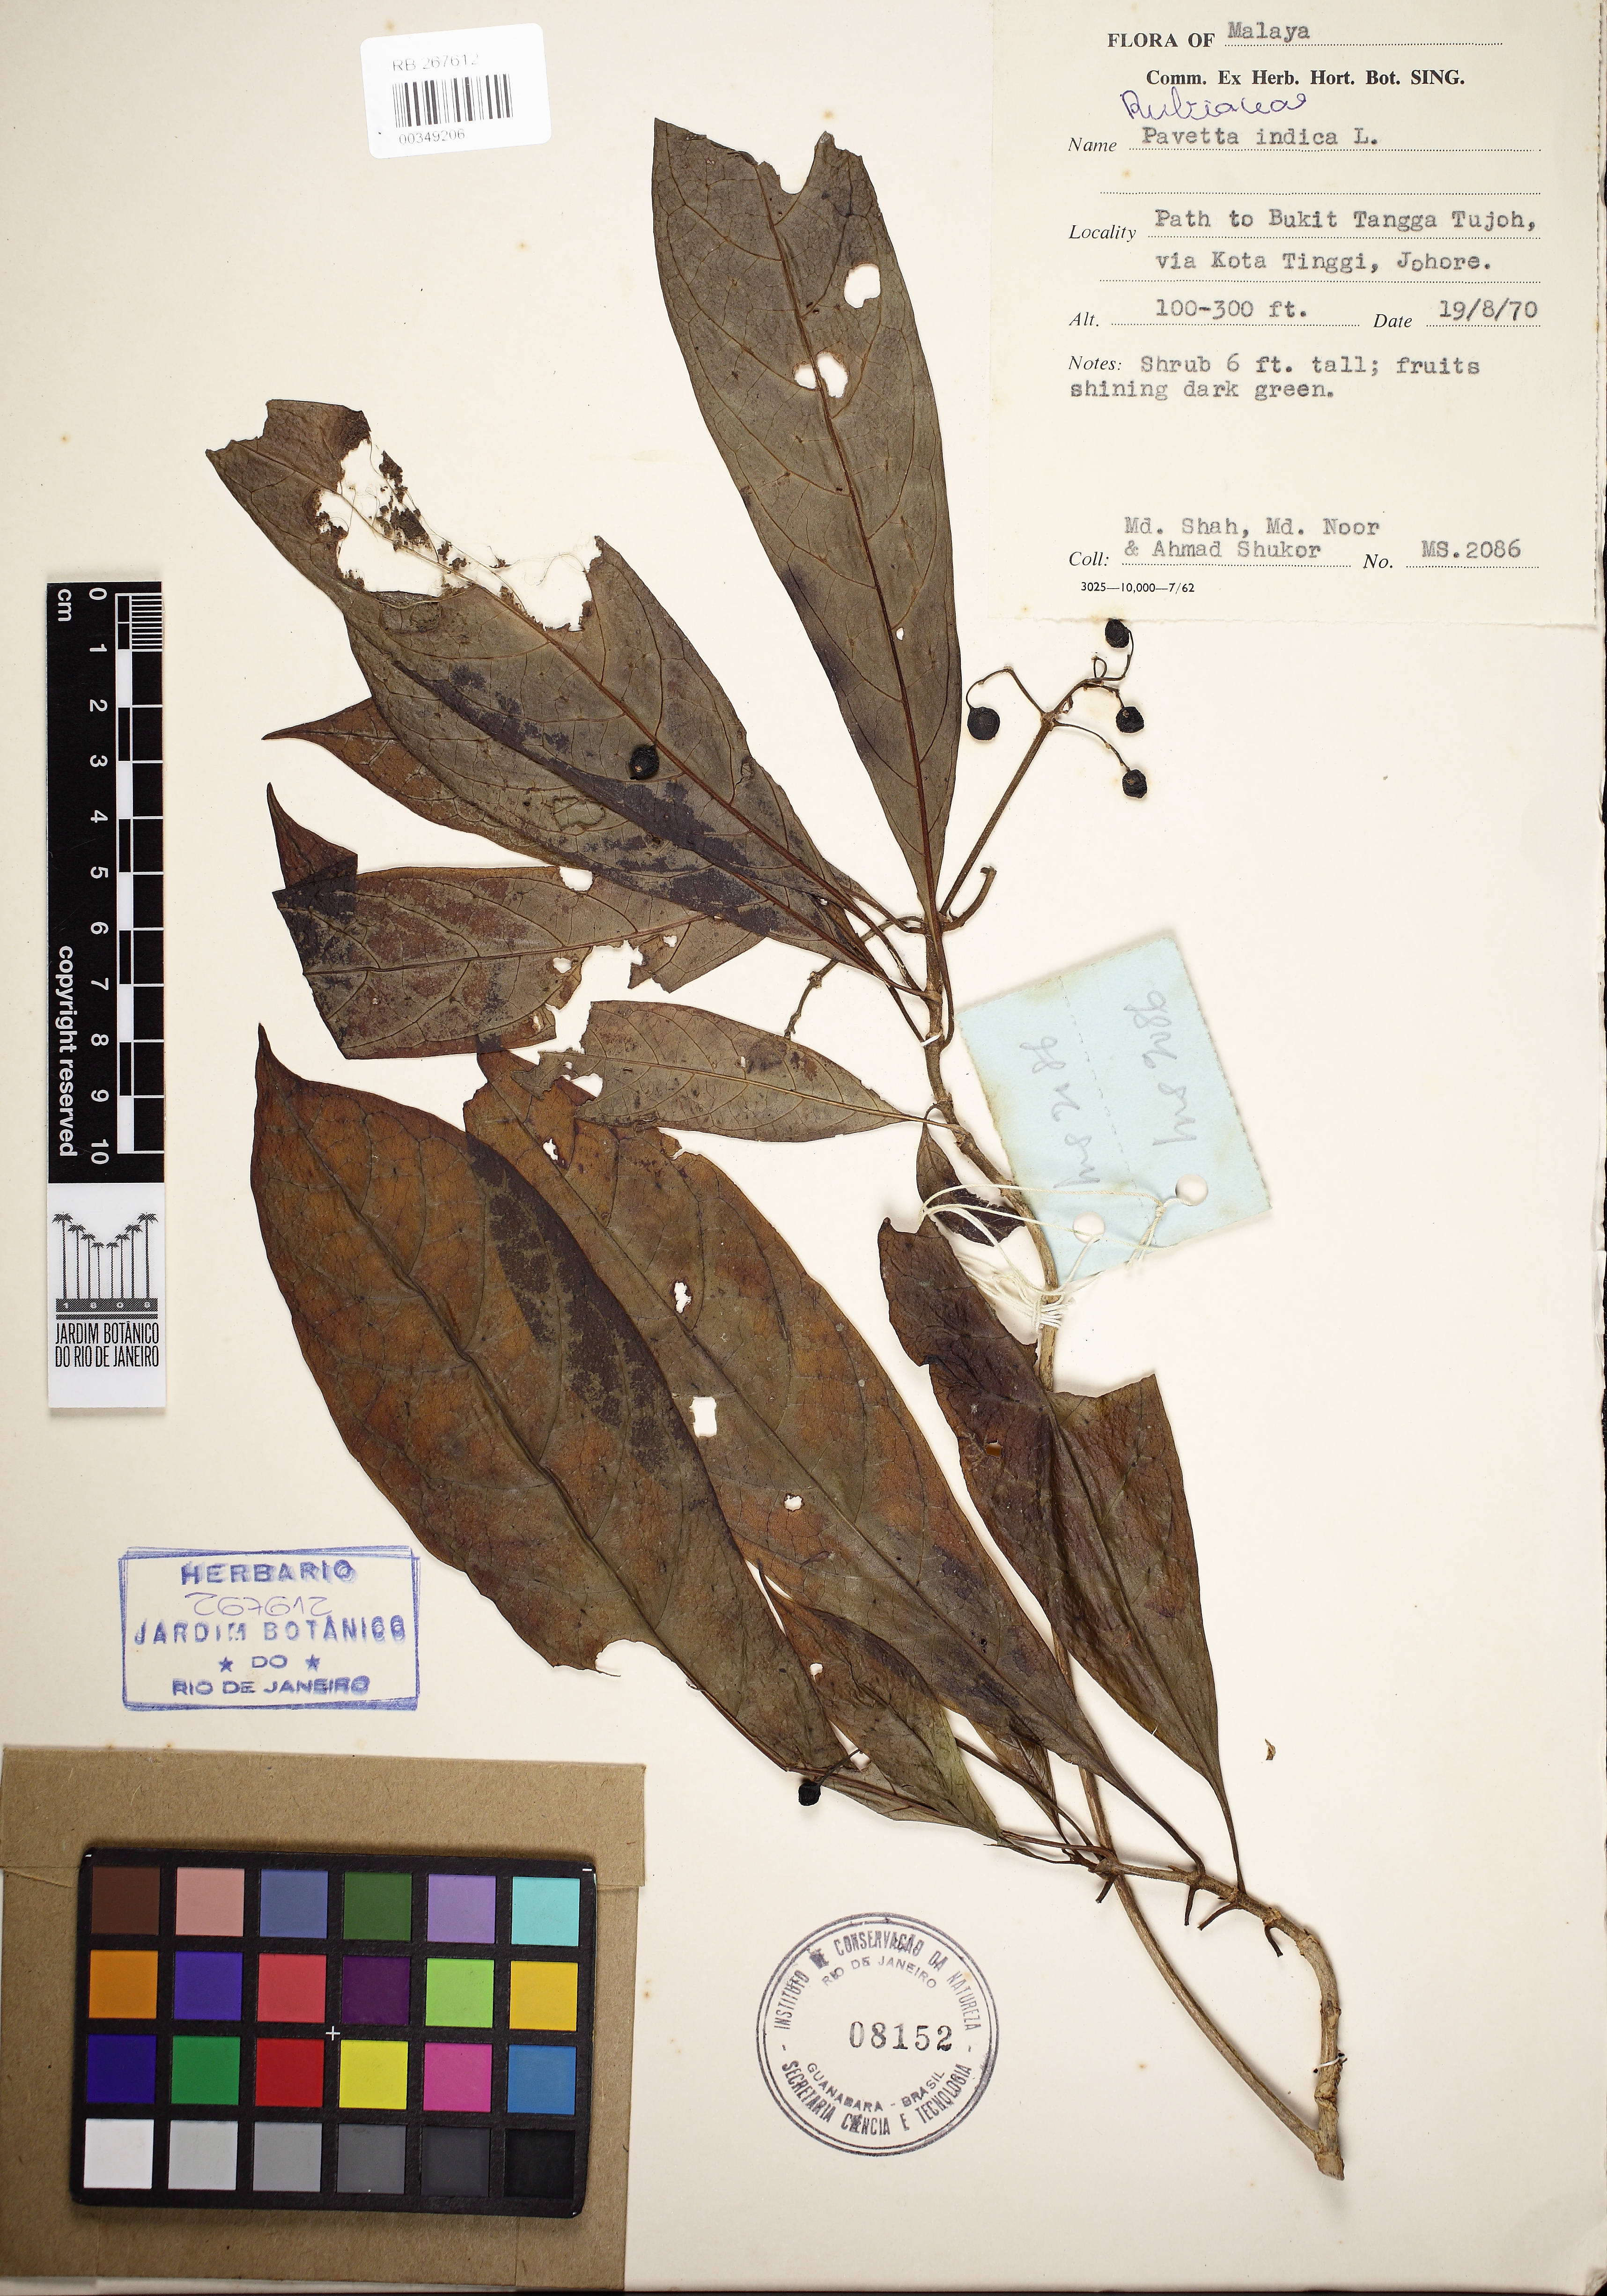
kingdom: Plantae
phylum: Tracheophyta
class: Magnoliopsida
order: Gentianales
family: Rubiaceae
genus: Pavetta
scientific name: Pavetta indica
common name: Indian pavetta
